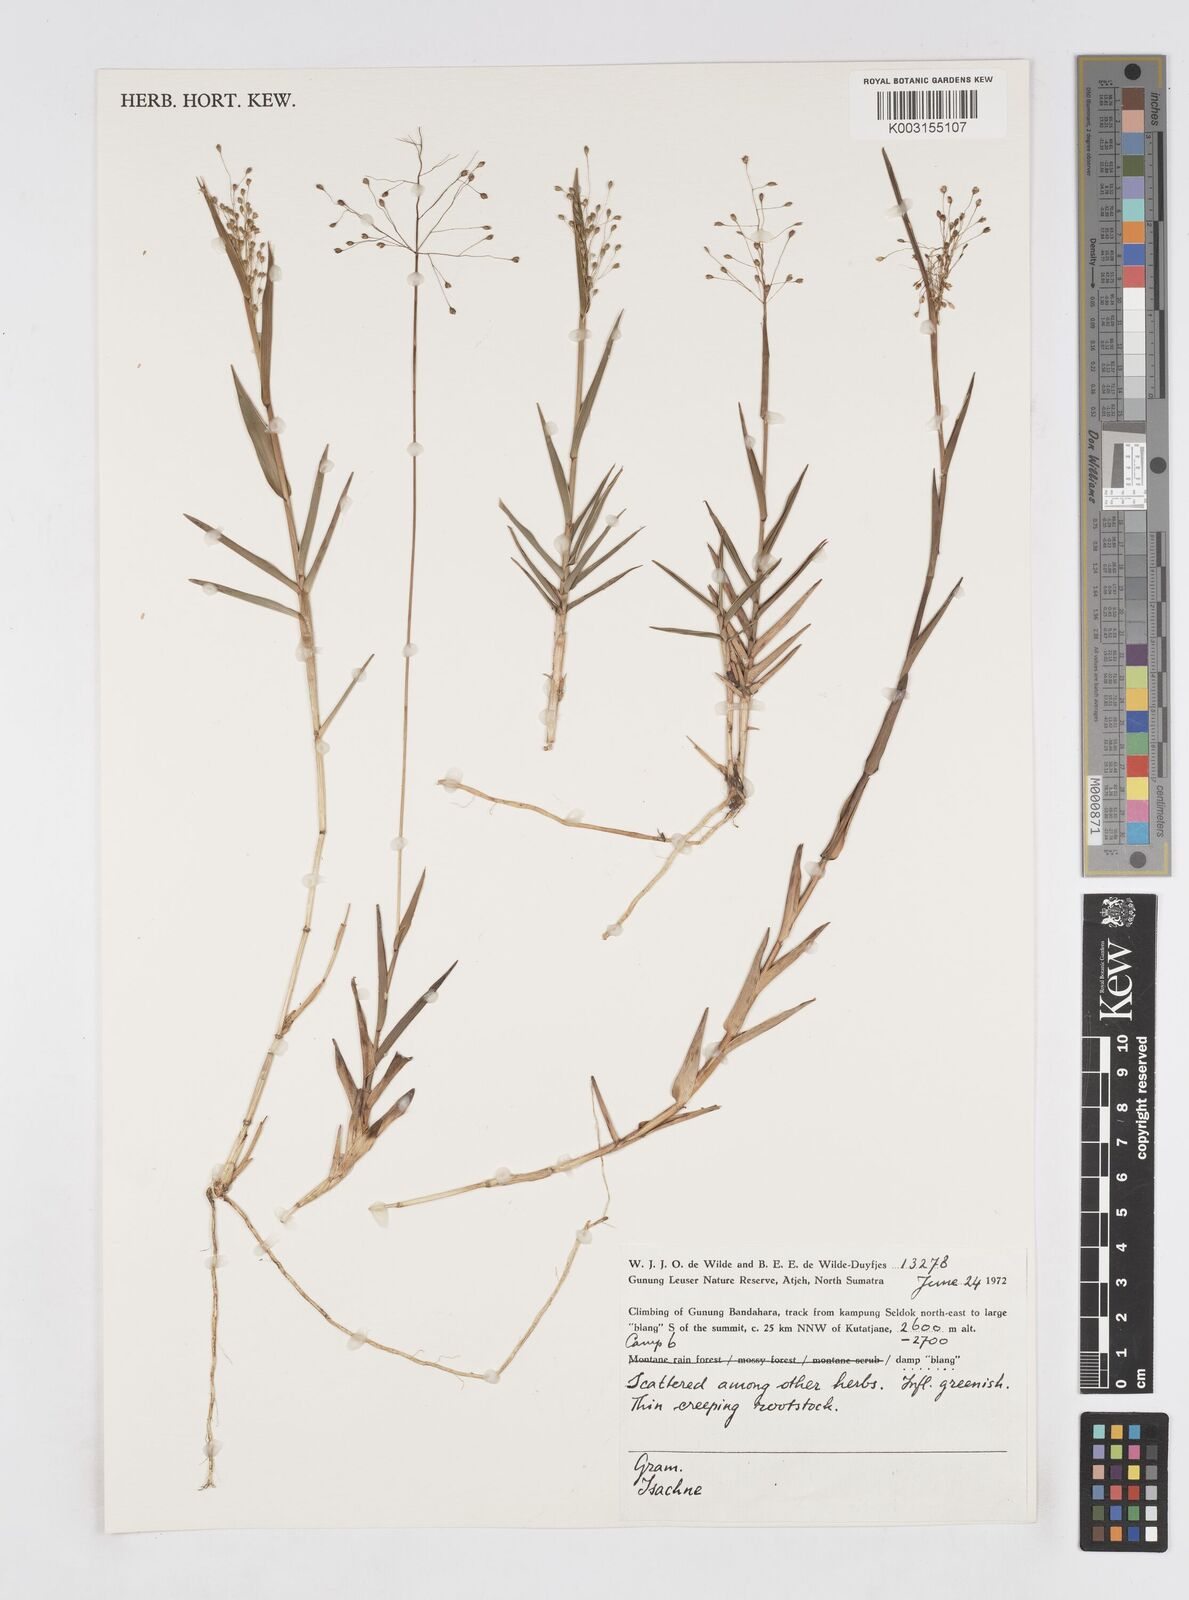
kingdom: Plantae
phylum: Tracheophyta
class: Liliopsida
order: Poales
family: Poaceae
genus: Isachne
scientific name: Isachne
